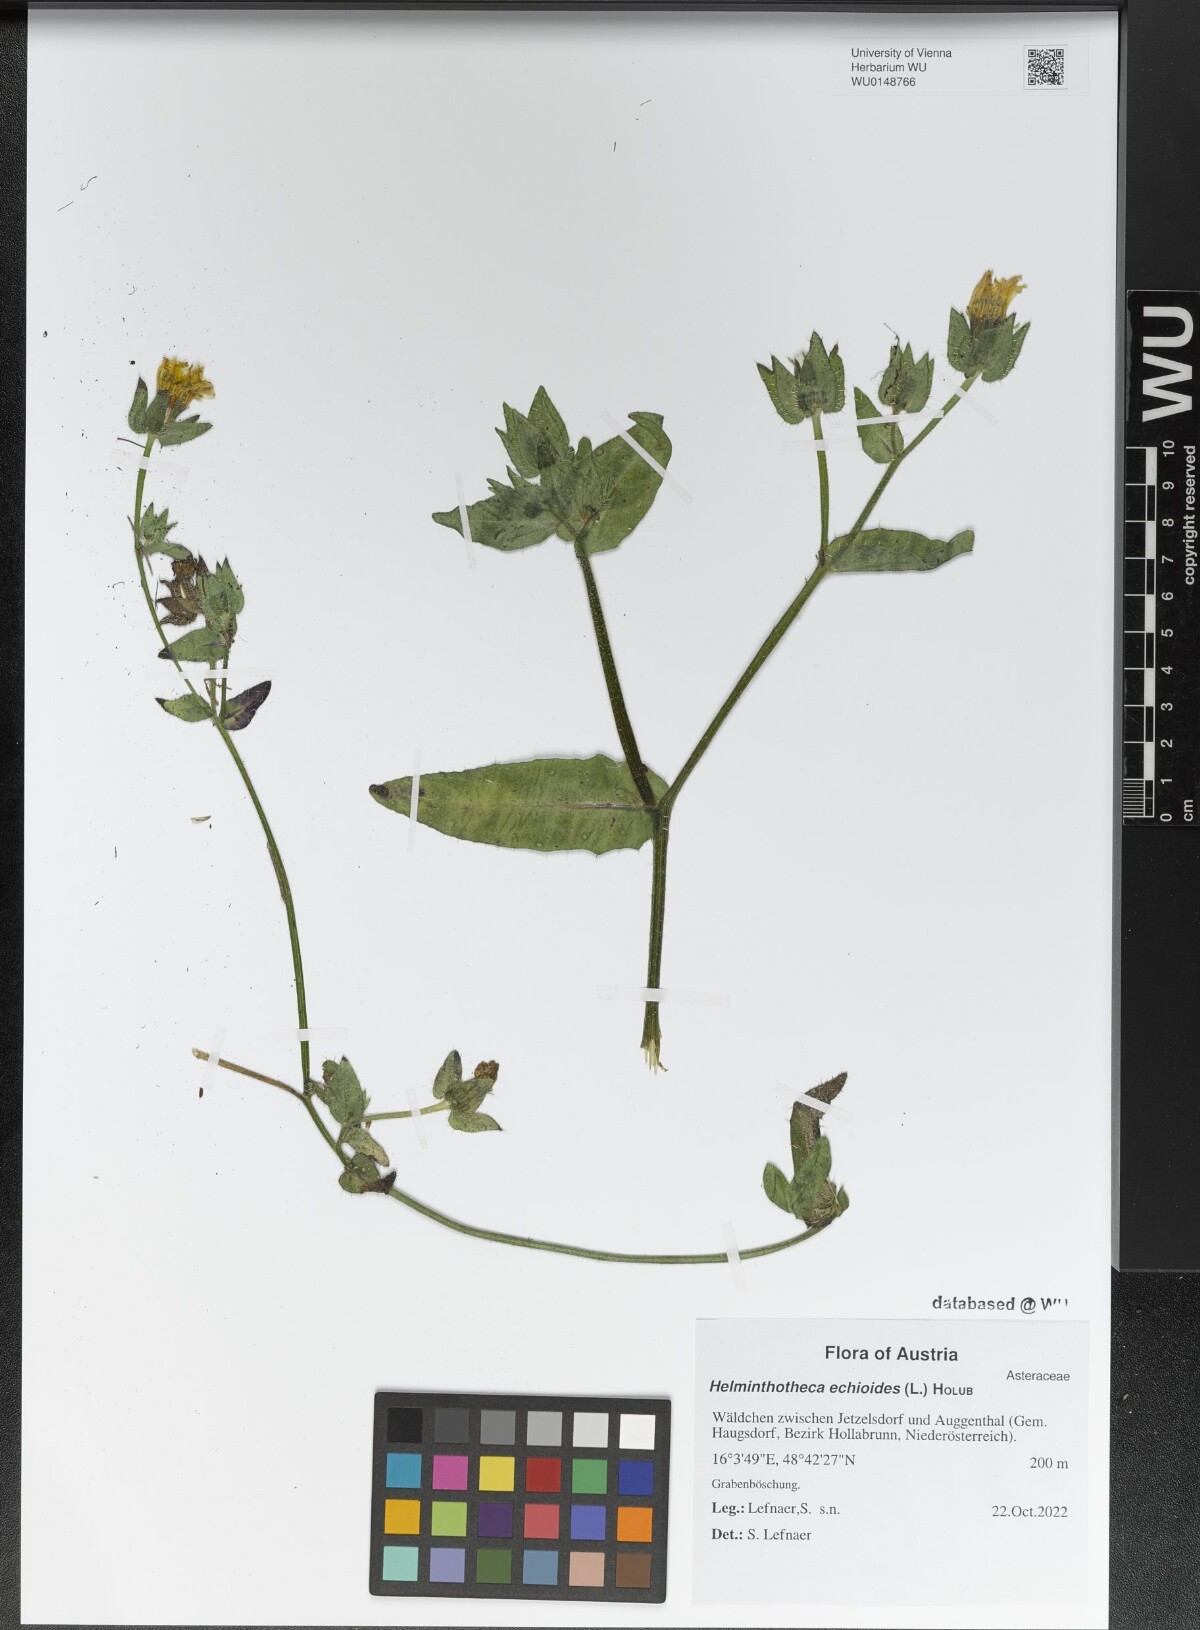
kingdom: Plantae
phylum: Tracheophyta
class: Magnoliopsida
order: Asterales
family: Asteraceae
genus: Helminthotheca
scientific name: Helminthotheca echioides
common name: Ox-tongue
